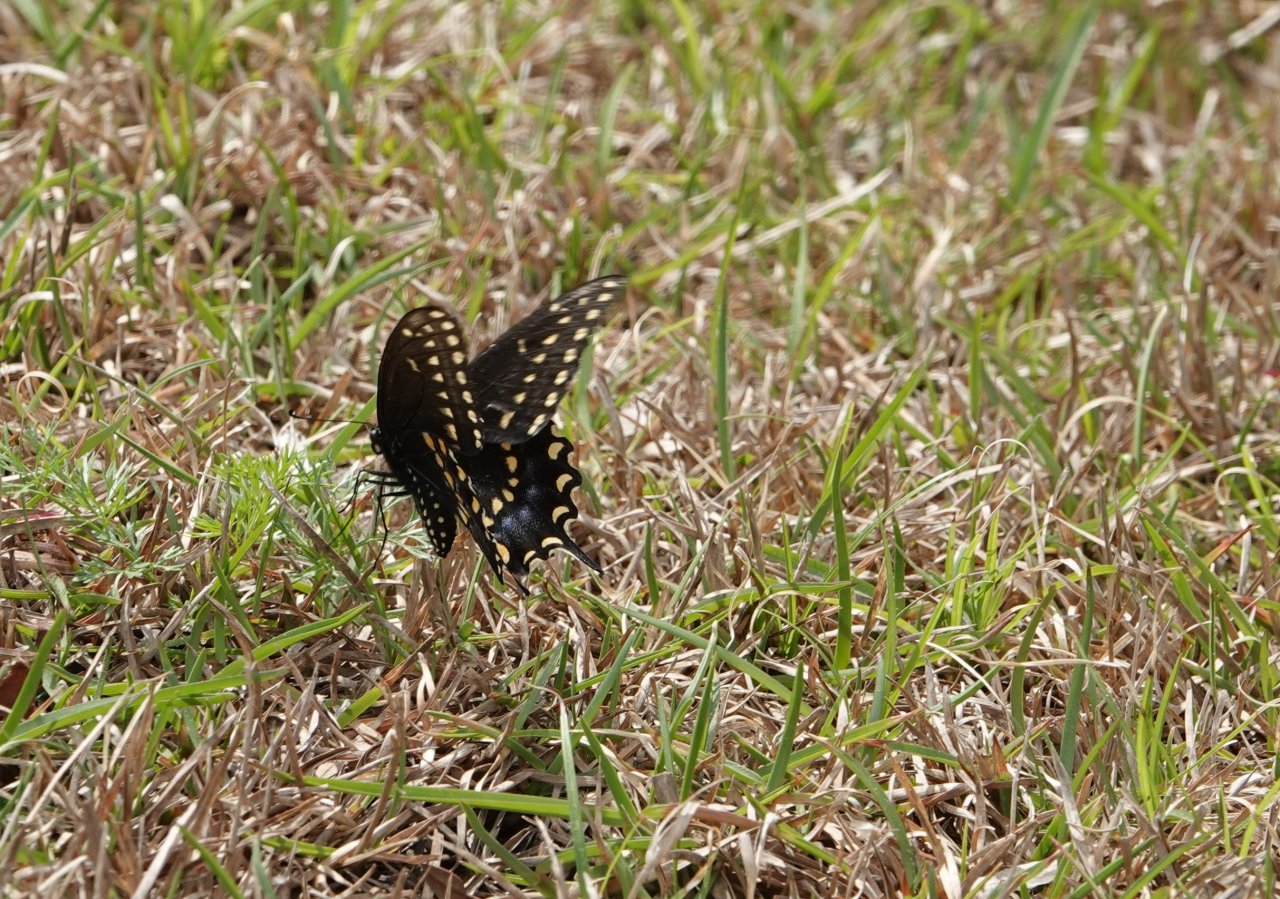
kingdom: Animalia
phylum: Arthropoda
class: Insecta
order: Lepidoptera
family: Papilionidae
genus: Papilio
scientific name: Papilio polyxenes
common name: Black Swallowtail
